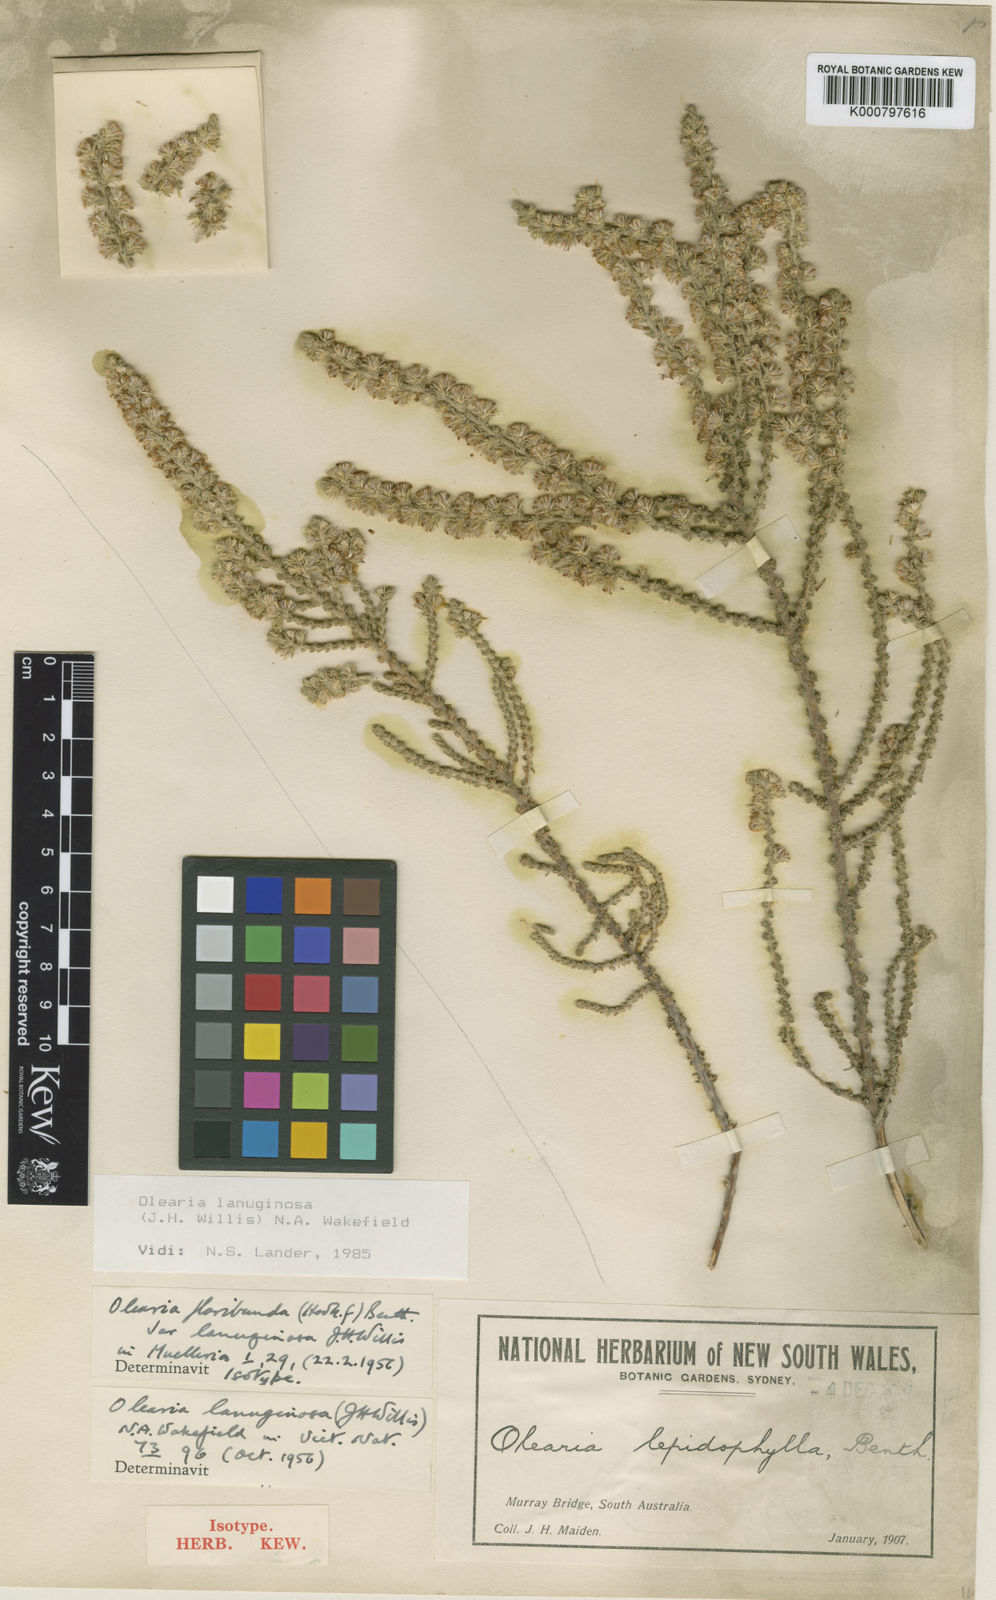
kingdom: Plantae
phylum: Tracheophyta
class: Magnoliopsida
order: Asterales
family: Asteraceae
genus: Olearia
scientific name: Olearia lanuginosa
